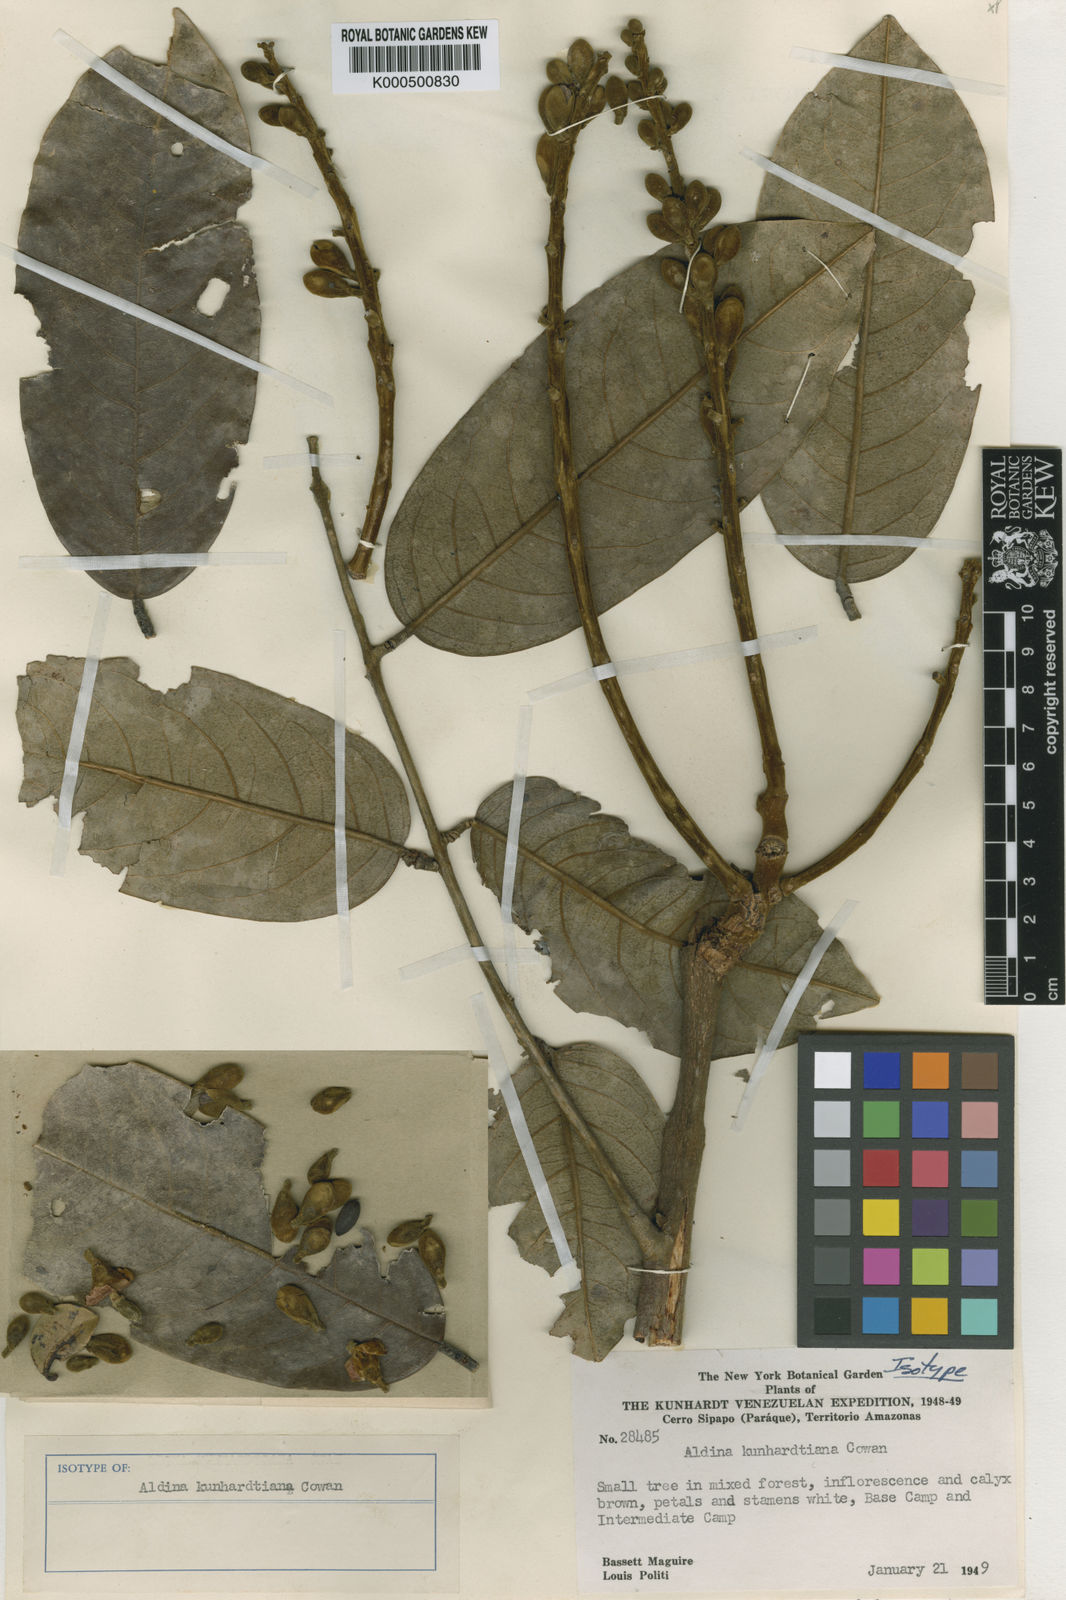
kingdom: Plantae
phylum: Tracheophyta
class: Magnoliopsida
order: Fabales
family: Fabaceae
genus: Aldina
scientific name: Aldina kunhardtiana
